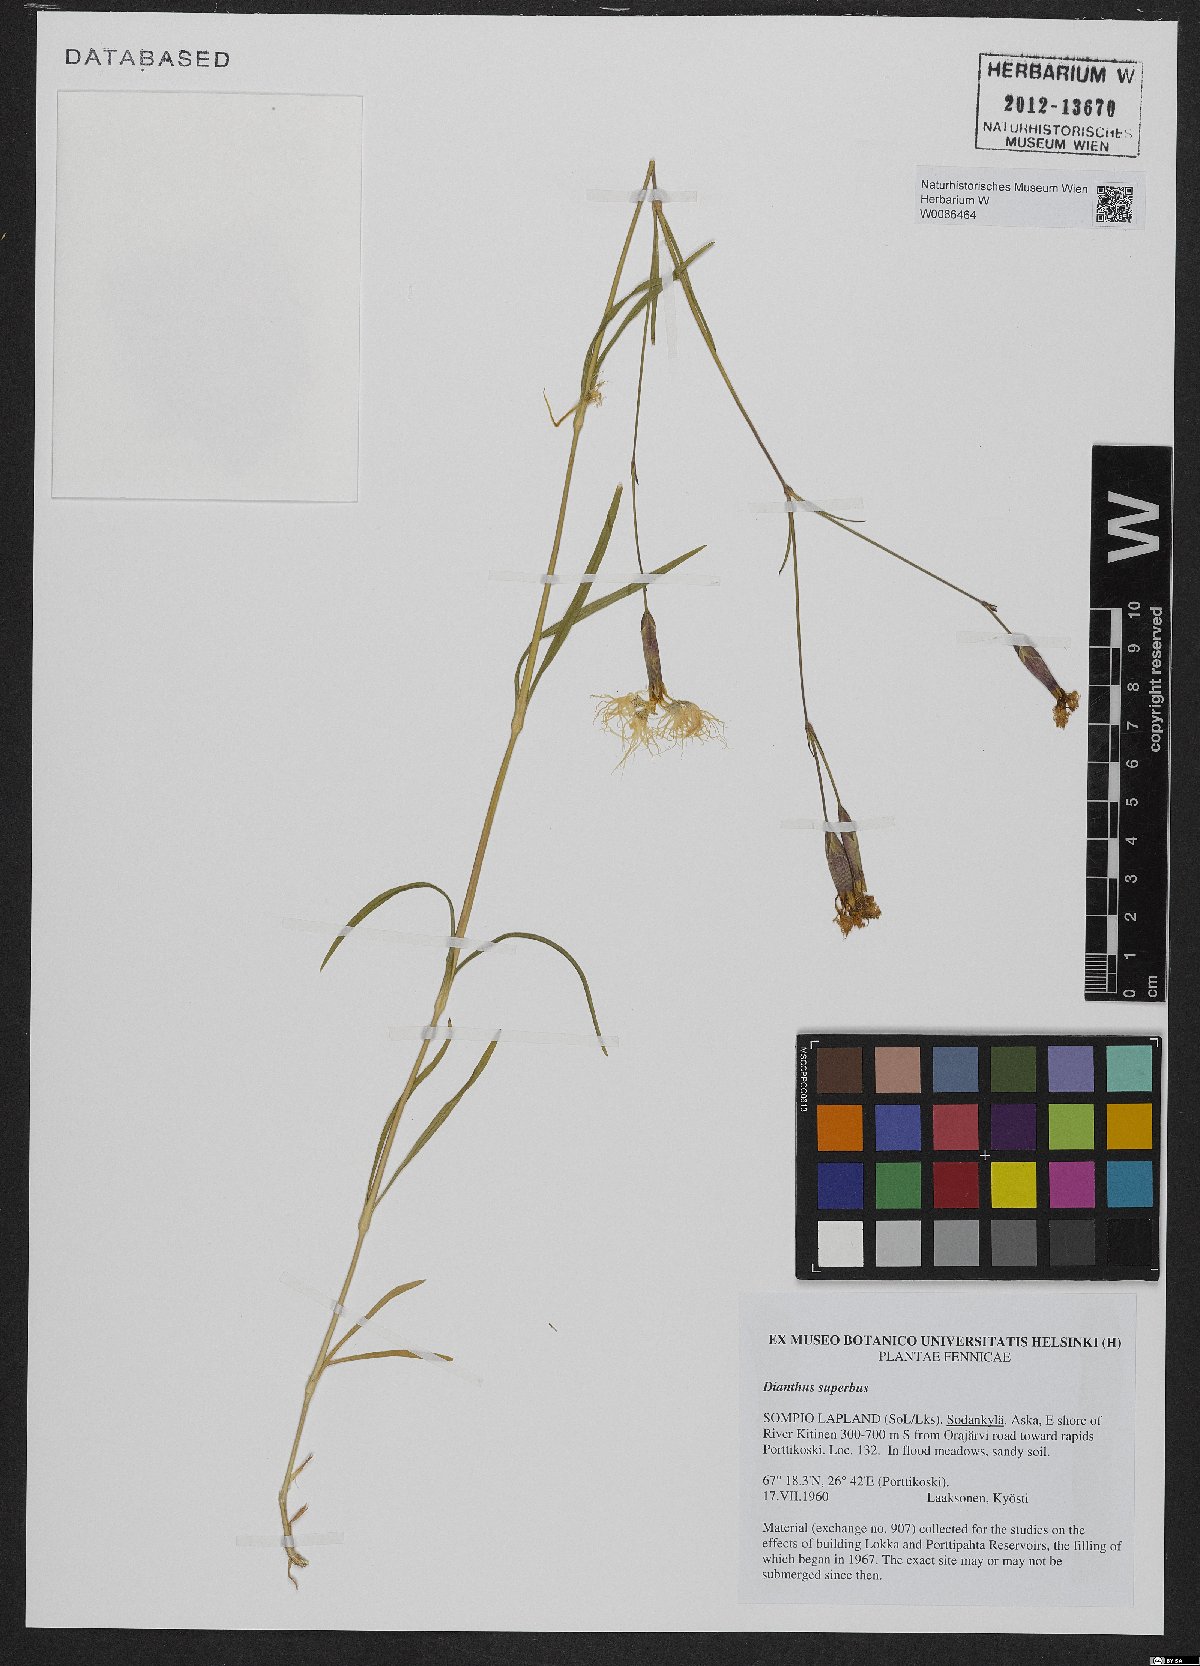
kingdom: Plantae
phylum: Tracheophyta
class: Magnoliopsida
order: Caryophyllales
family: Caryophyllaceae
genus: Dianthus
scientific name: Dianthus superbus
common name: Fringed pink
